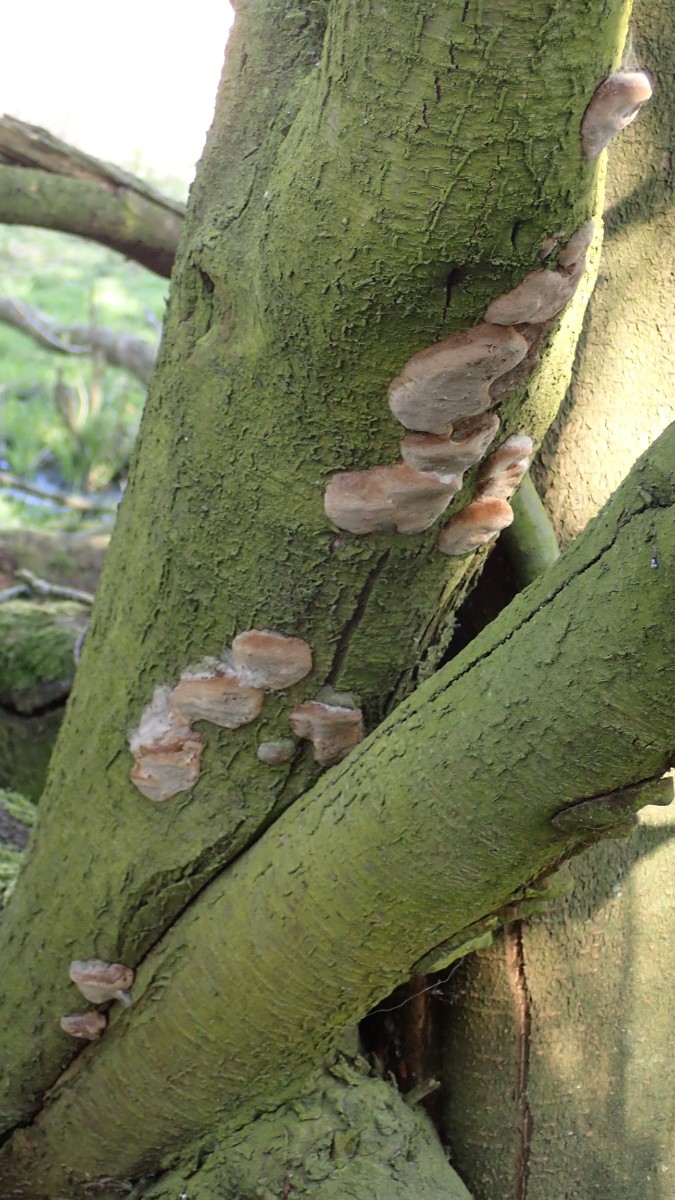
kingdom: Fungi
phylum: Basidiomycota
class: Agaricomycetes
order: Hymenochaetales
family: Hymenochaetaceae
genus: Phellinus
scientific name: Phellinus pomaceus
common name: blomme-ildporesvamp
